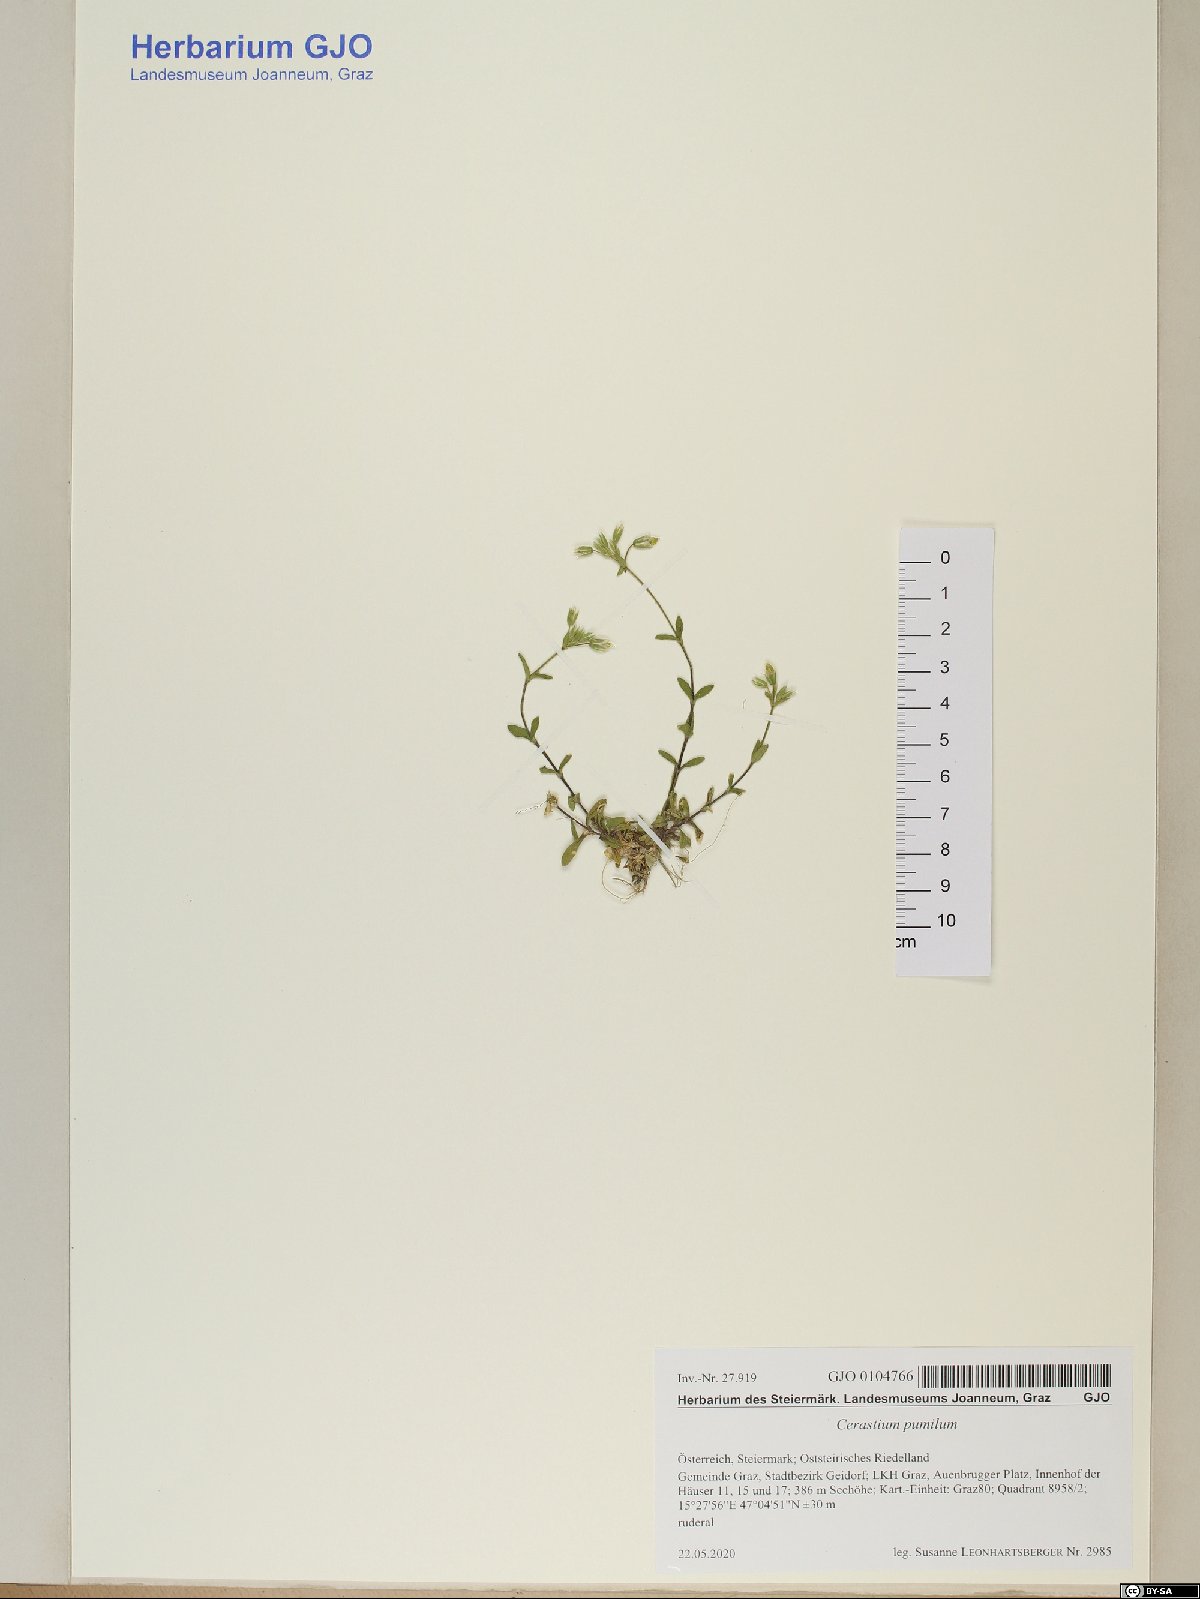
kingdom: Plantae
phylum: Tracheophyta
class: Magnoliopsida
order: Caryophyllales
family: Caryophyllaceae
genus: Cerastium
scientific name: Cerastium pumilum
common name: Dwarf mouse-ear
